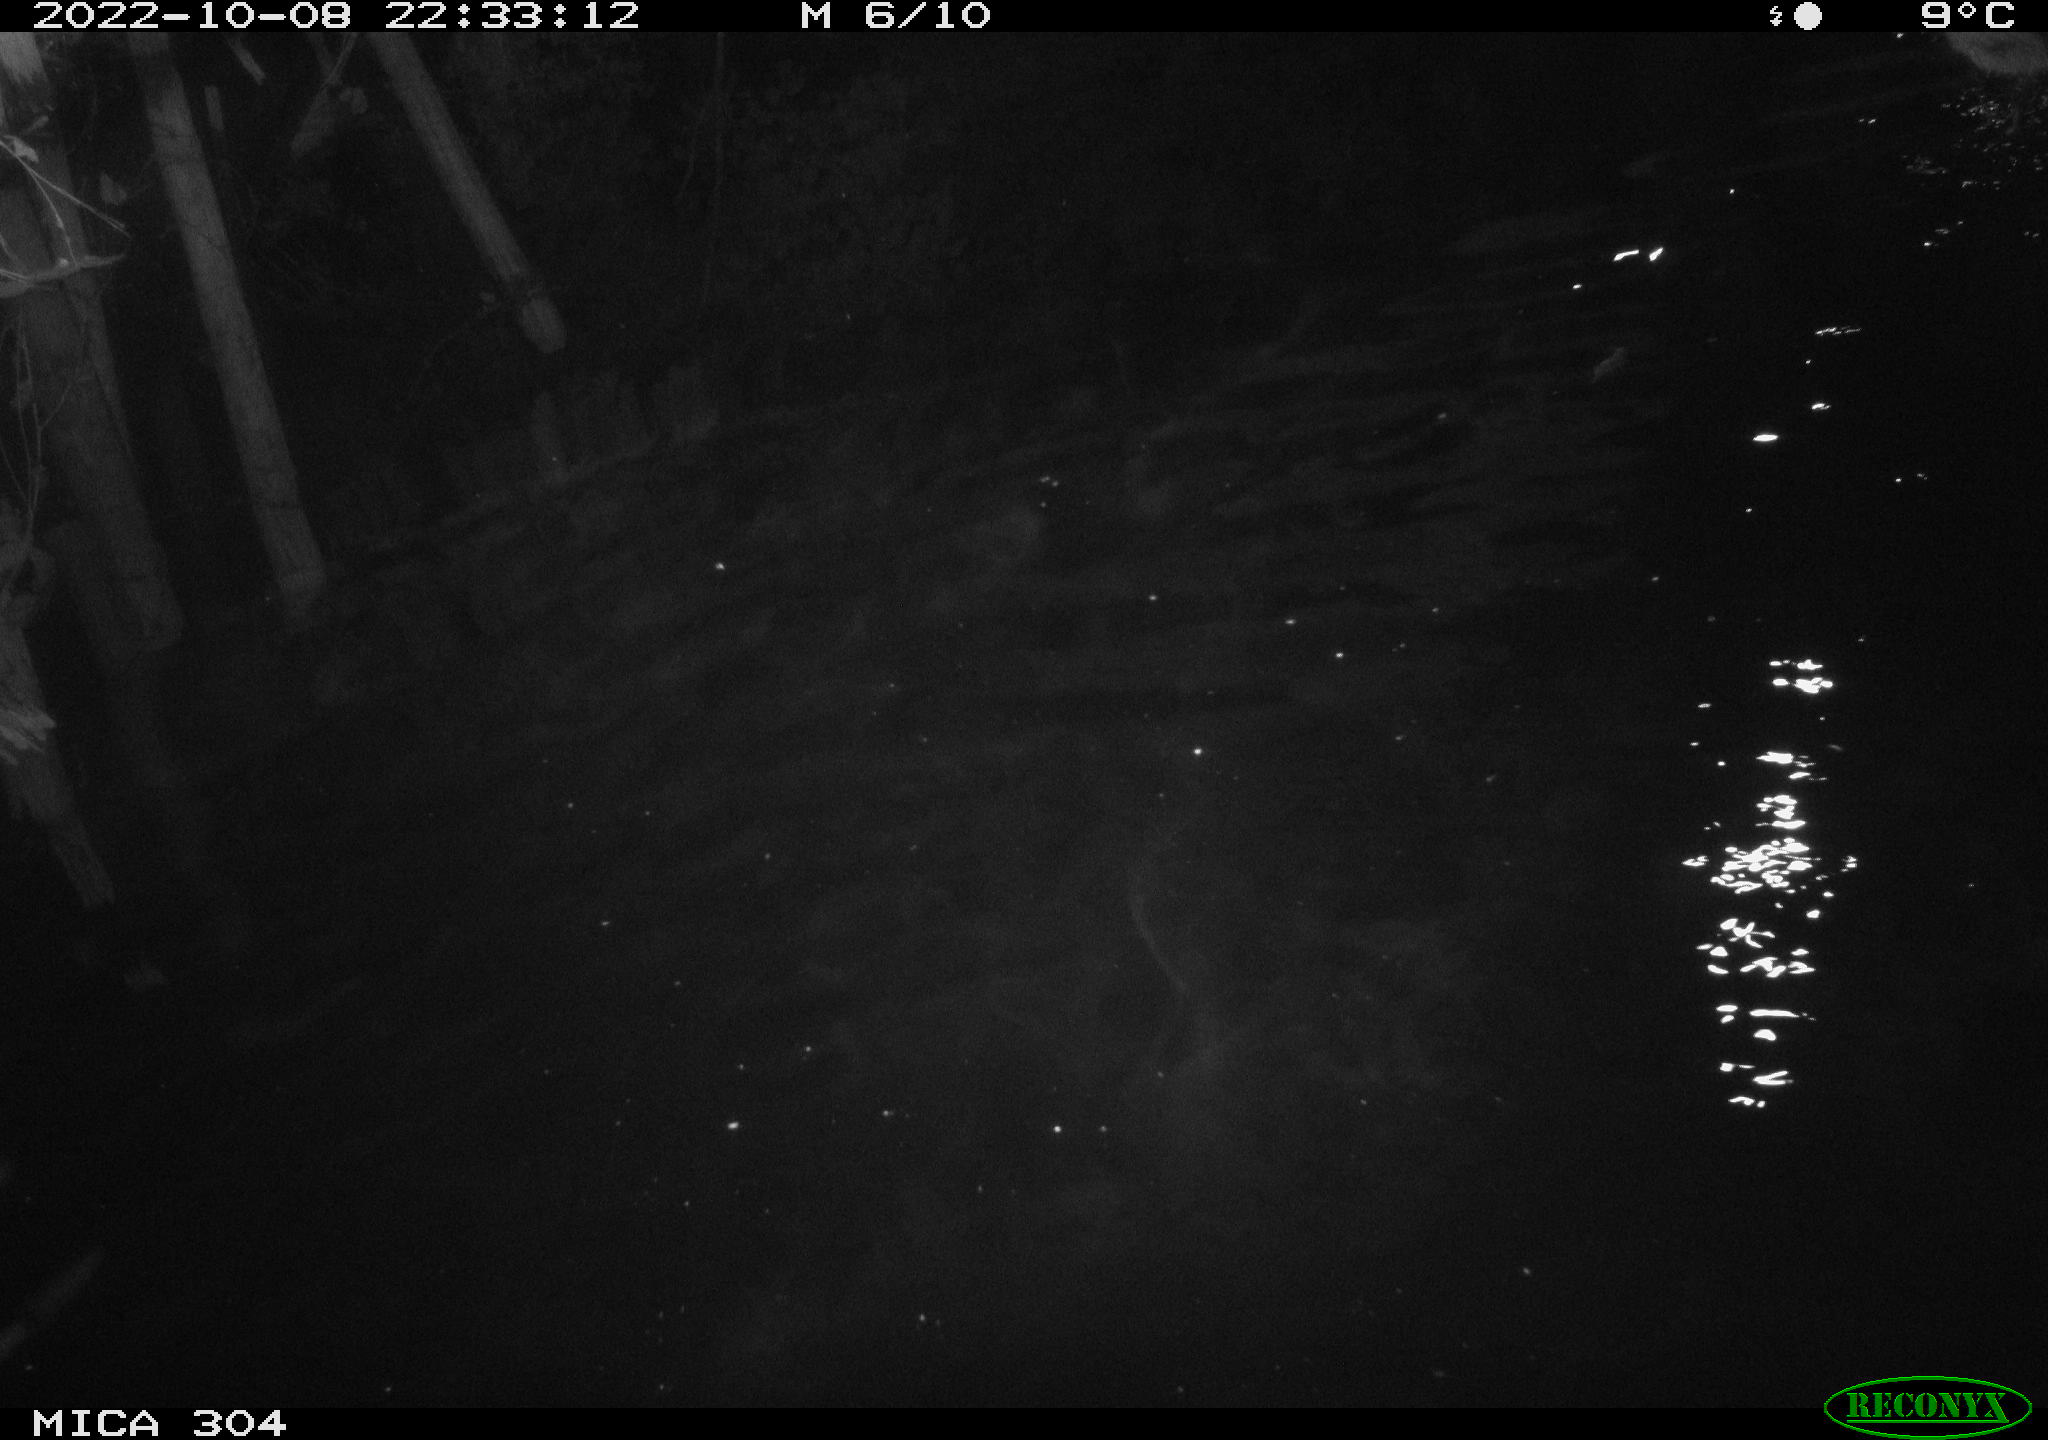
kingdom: Animalia
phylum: Chordata
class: Mammalia
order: Rodentia
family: Cricetidae
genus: Ondatra
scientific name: Ondatra zibethicus
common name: Muskrat
